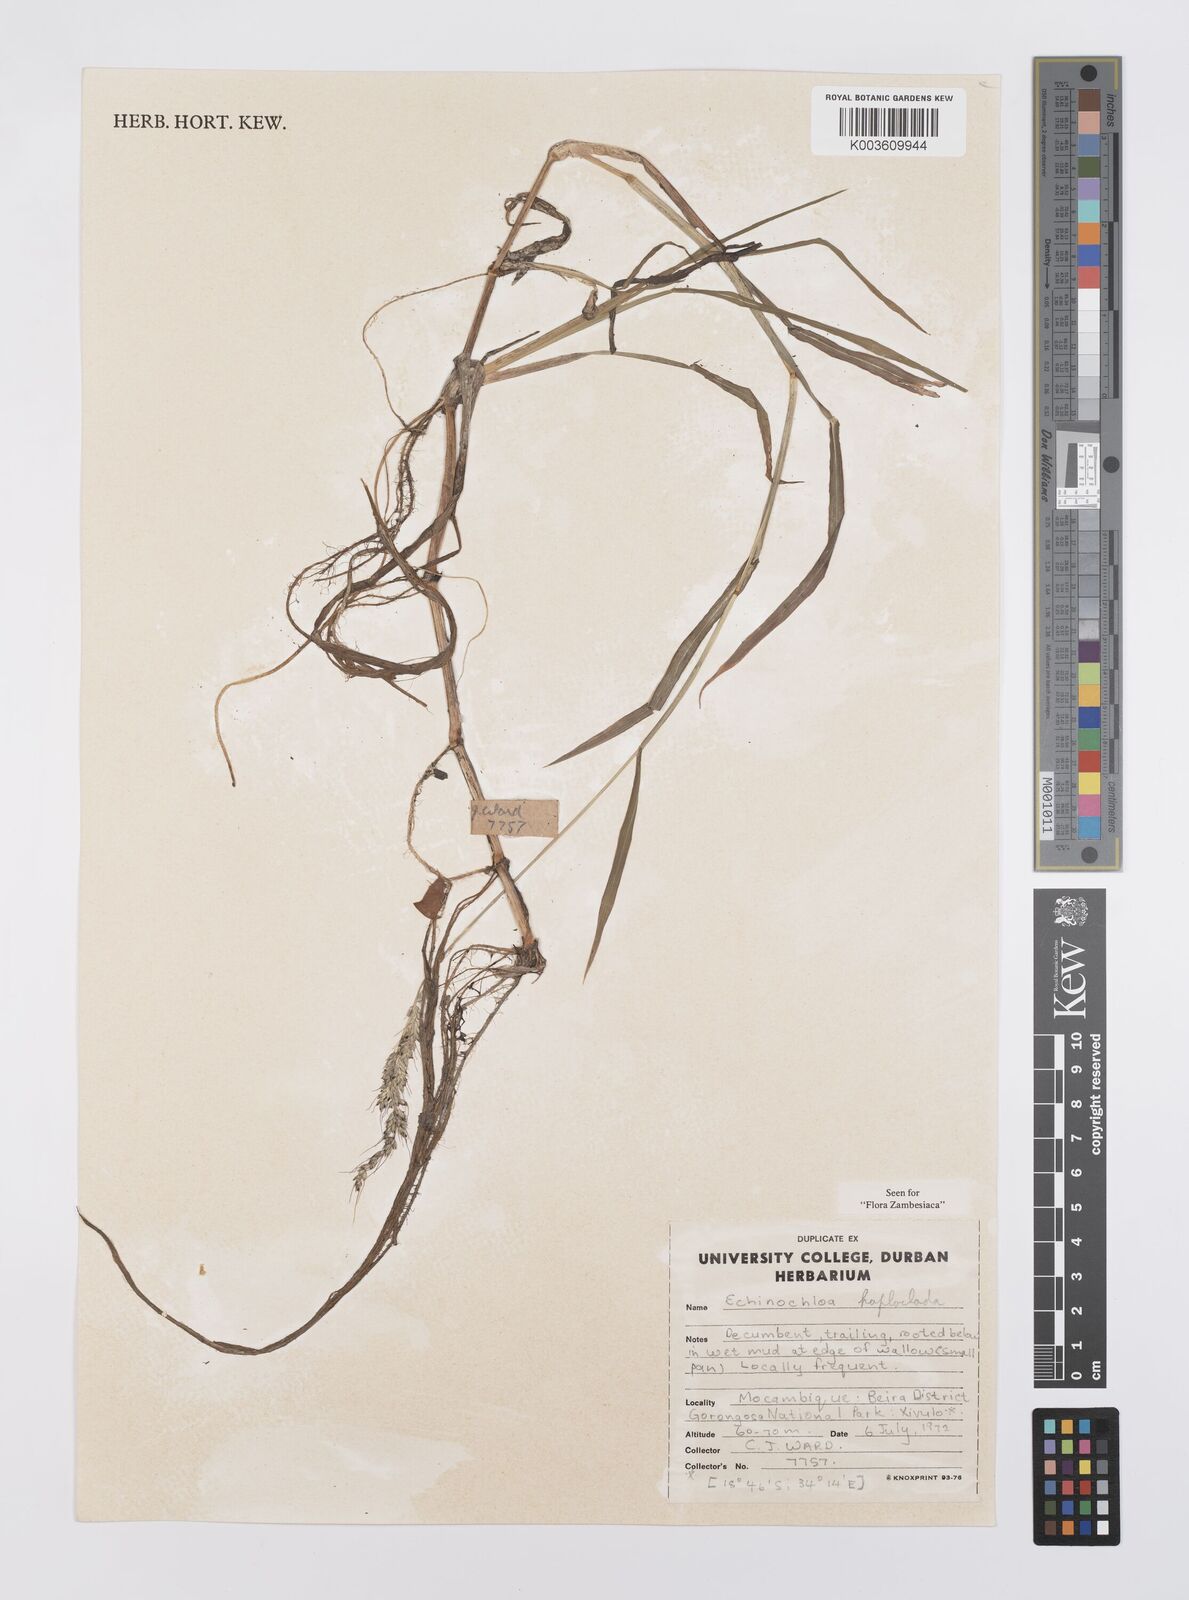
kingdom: Plantae
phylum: Tracheophyta
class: Liliopsida
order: Poales
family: Poaceae
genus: Echinochloa
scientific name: Echinochloa haploclada
